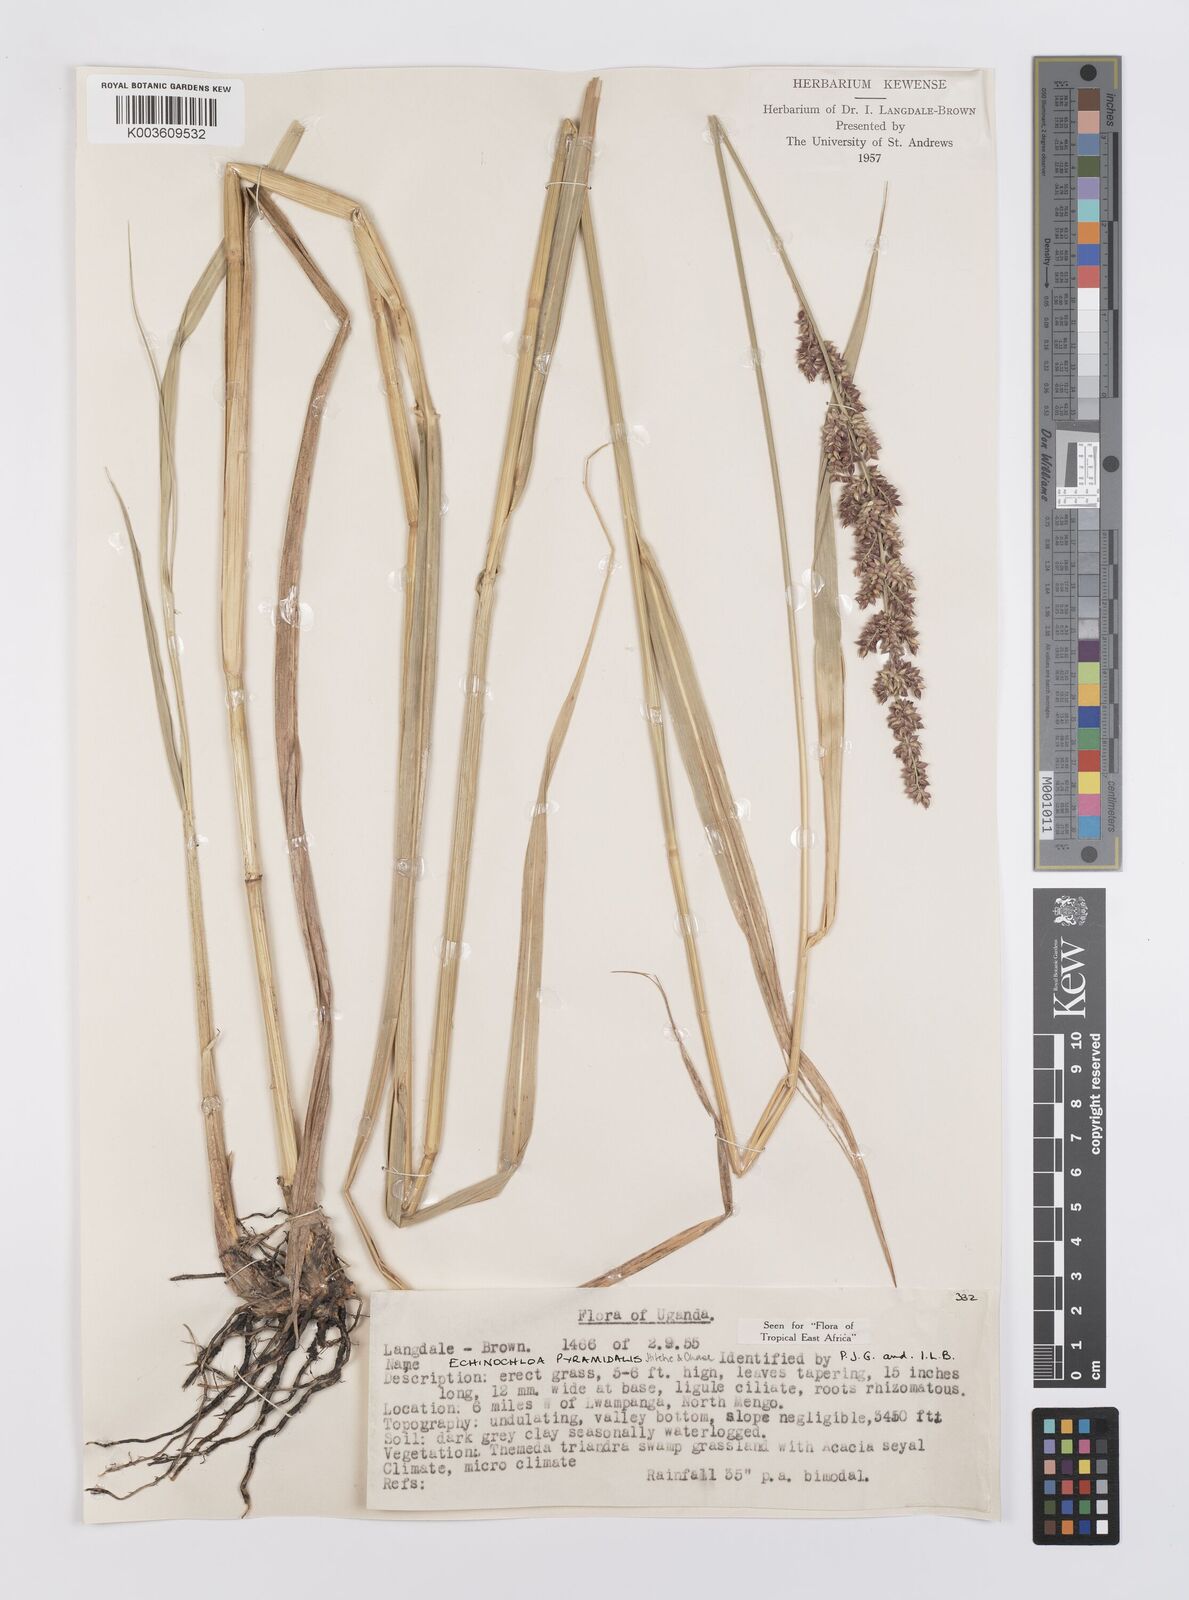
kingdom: Plantae
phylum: Tracheophyta
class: Liliopsida
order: Poales
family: Poaceae
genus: Echinochloa
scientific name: Echinochloa pyramidalis
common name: Antelope grass
